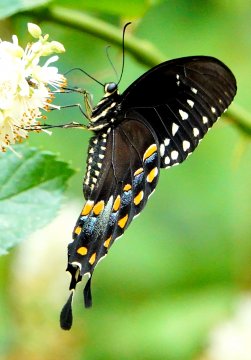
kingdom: Animalia
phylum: Arthropoda
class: Insecta
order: Lepidoptera
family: Papilionidae
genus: Pterourus
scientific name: Pterourus troilus
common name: Spicebush Swallowtail
